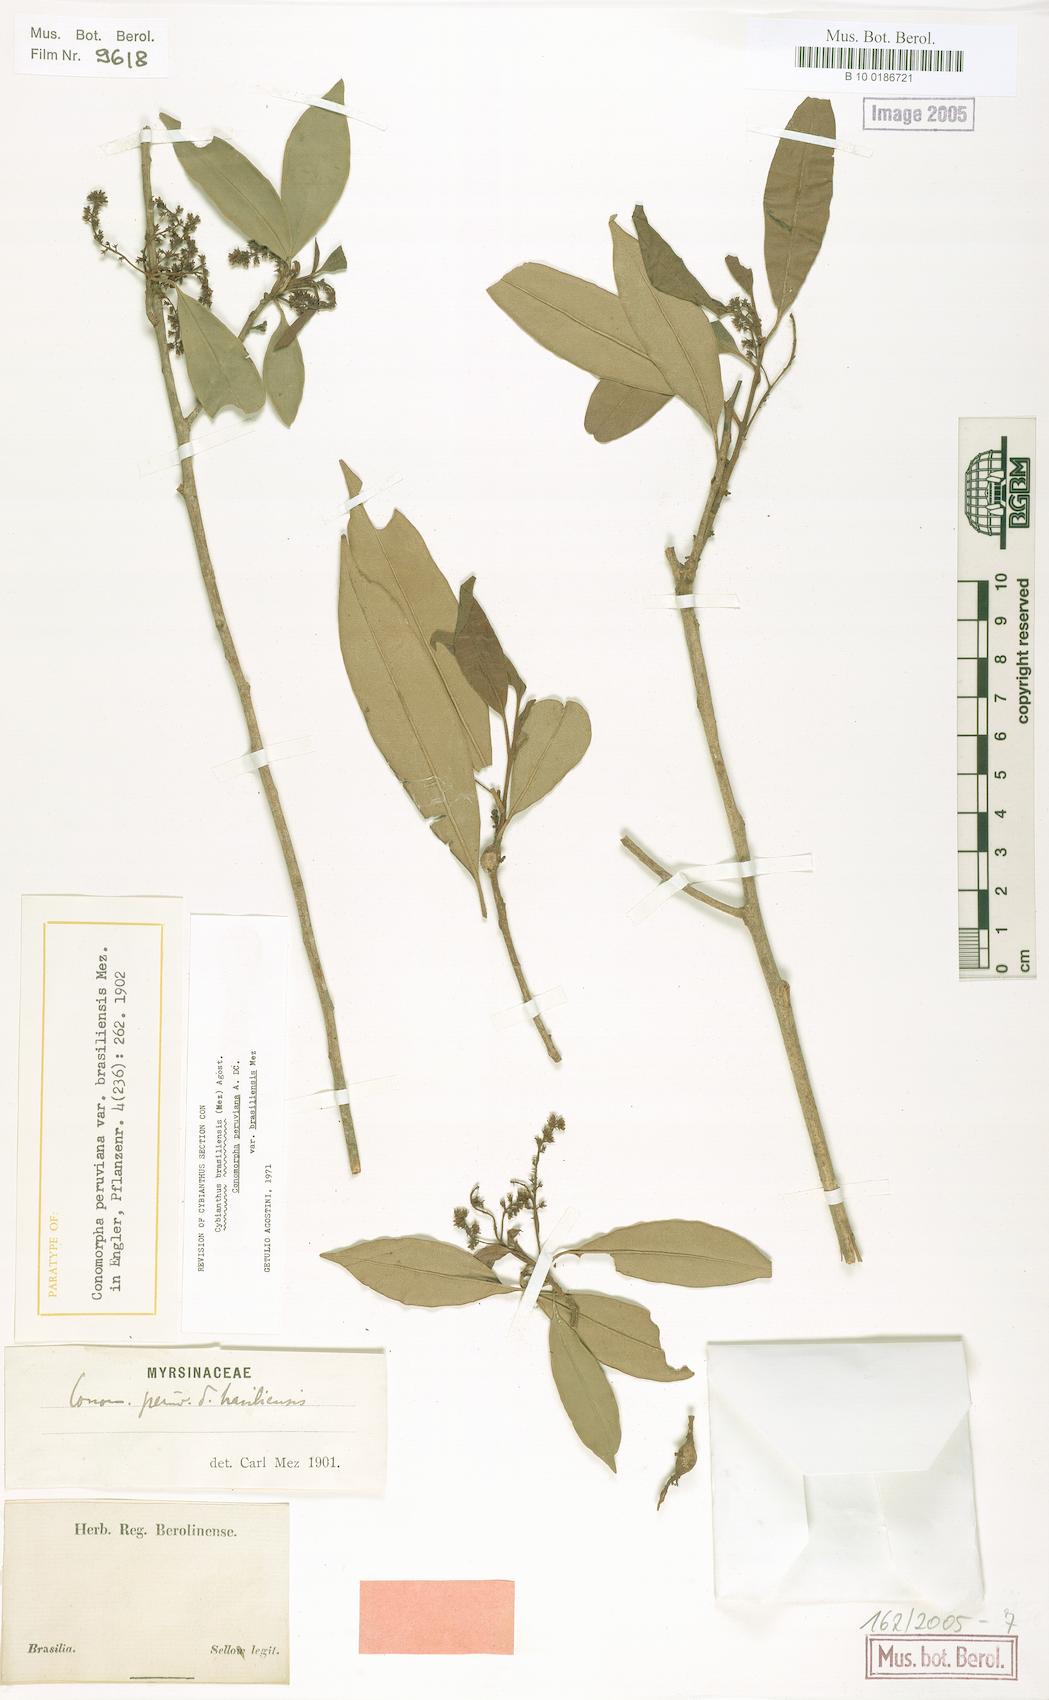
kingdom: Plantae
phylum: Tracheophyta
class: Magnoliopsida
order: Ericales
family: Primulaceae
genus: Cybianthus
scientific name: Cybianthus peruvianus
